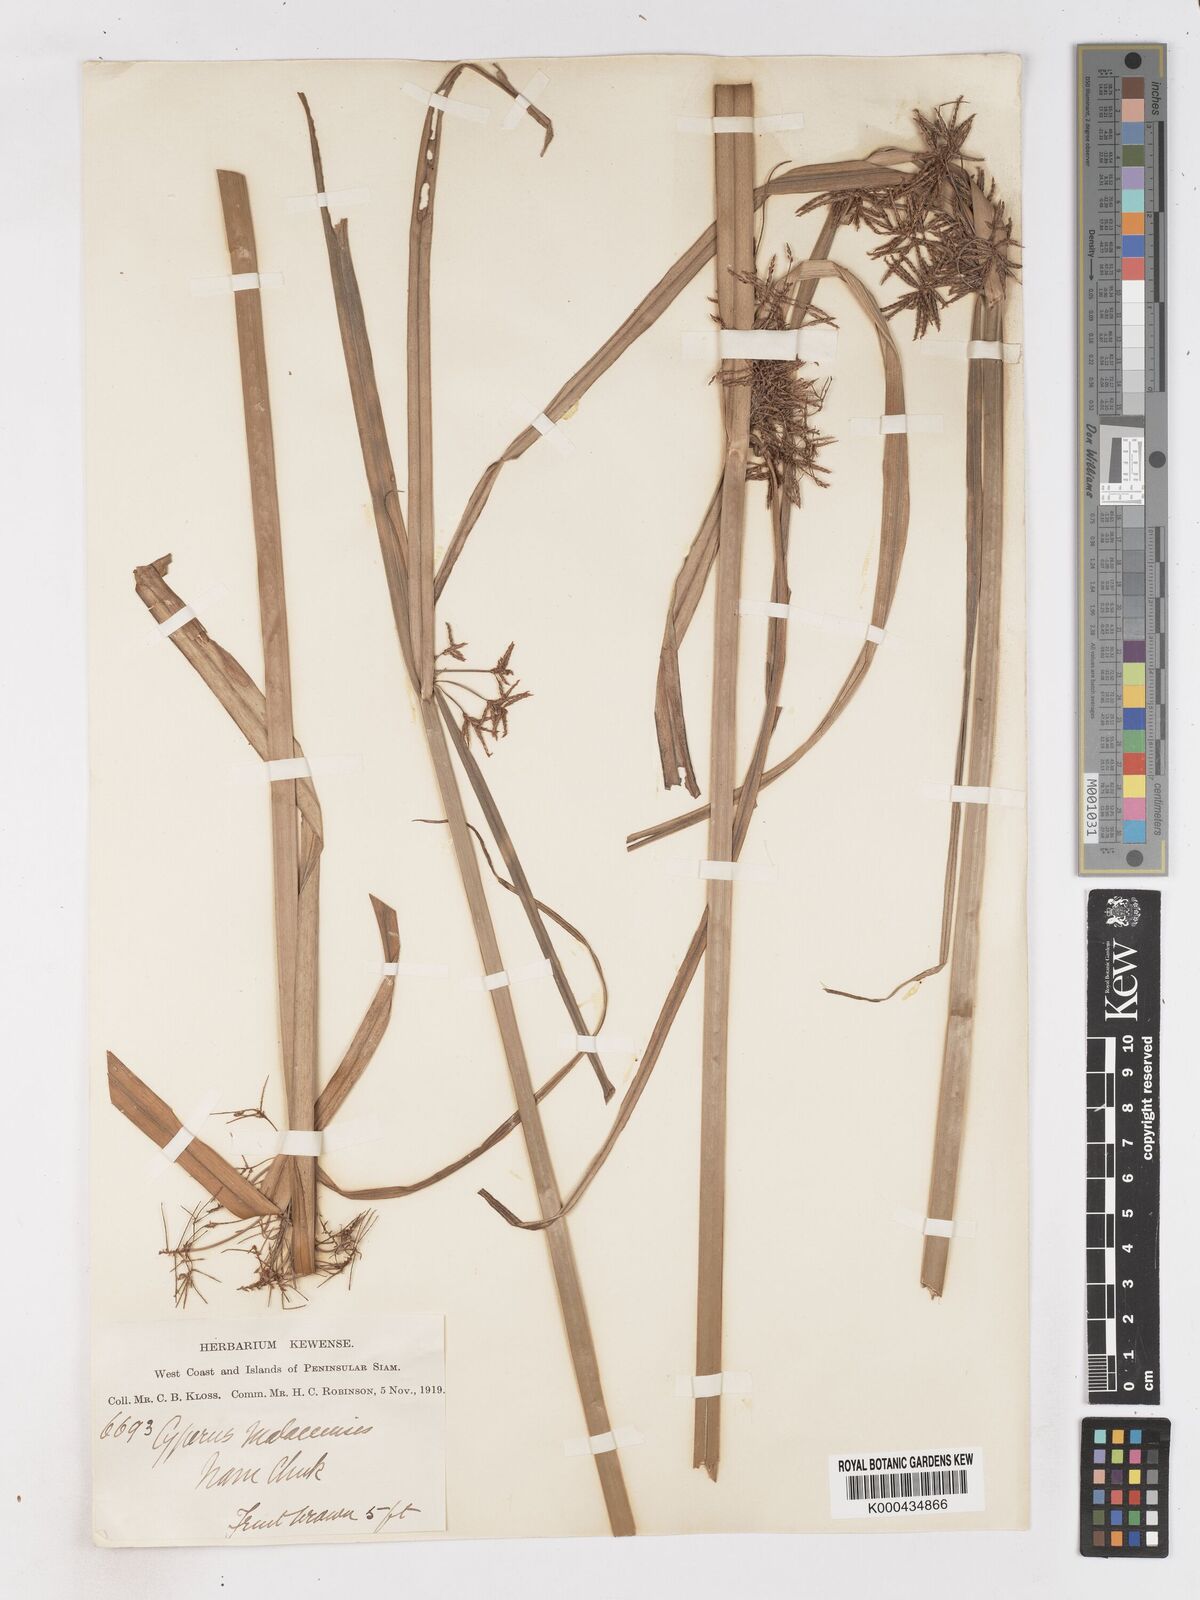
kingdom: Plantae
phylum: Tracheophyta
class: Liliopsida
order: Poales
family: Cyperaceae
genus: Cyperus
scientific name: Cyperus malaccensis
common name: Shichito matgrass
